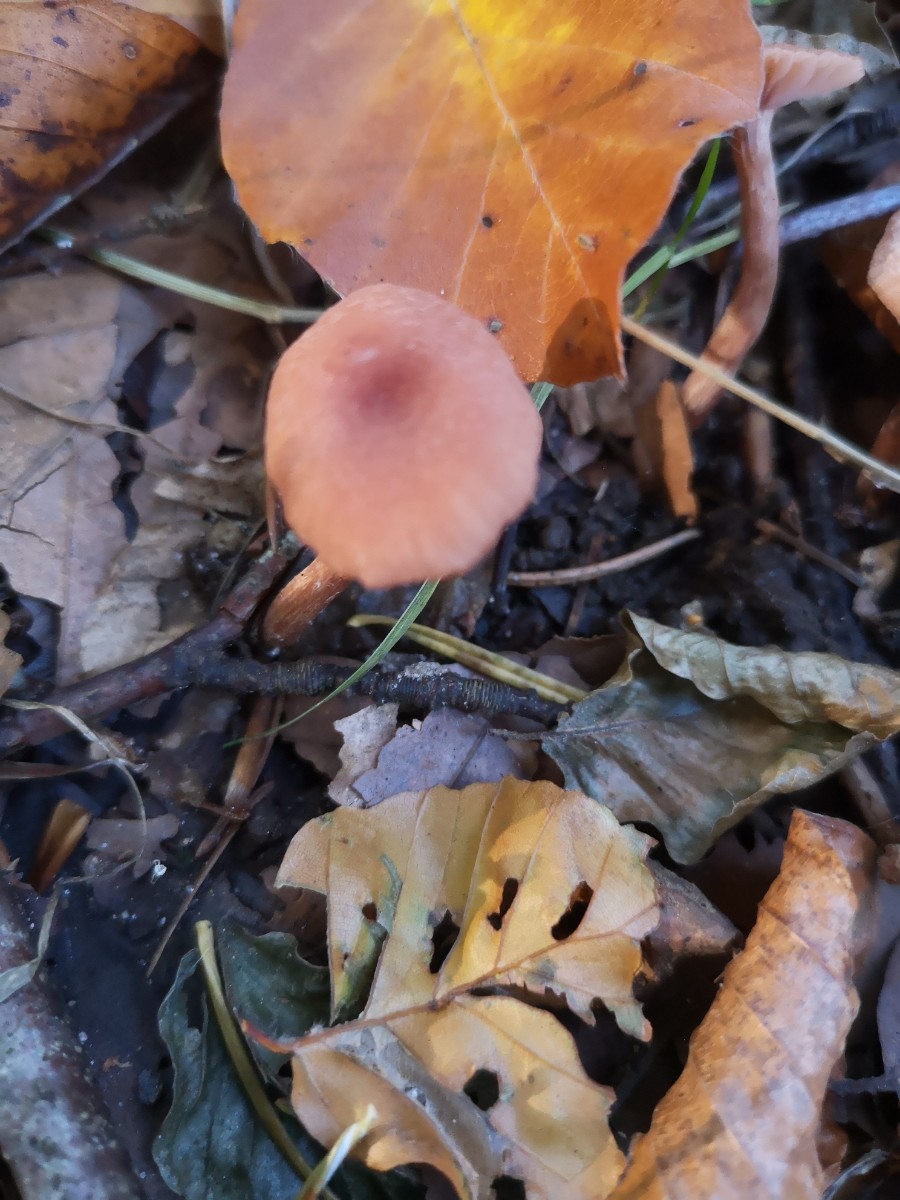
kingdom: Fungi
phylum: Basidiomycota
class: Agaricomycetes
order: Agaricales
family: Hydnangiaceae
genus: Laccaria
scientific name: Laccaria laccata
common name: rød ametysthat
